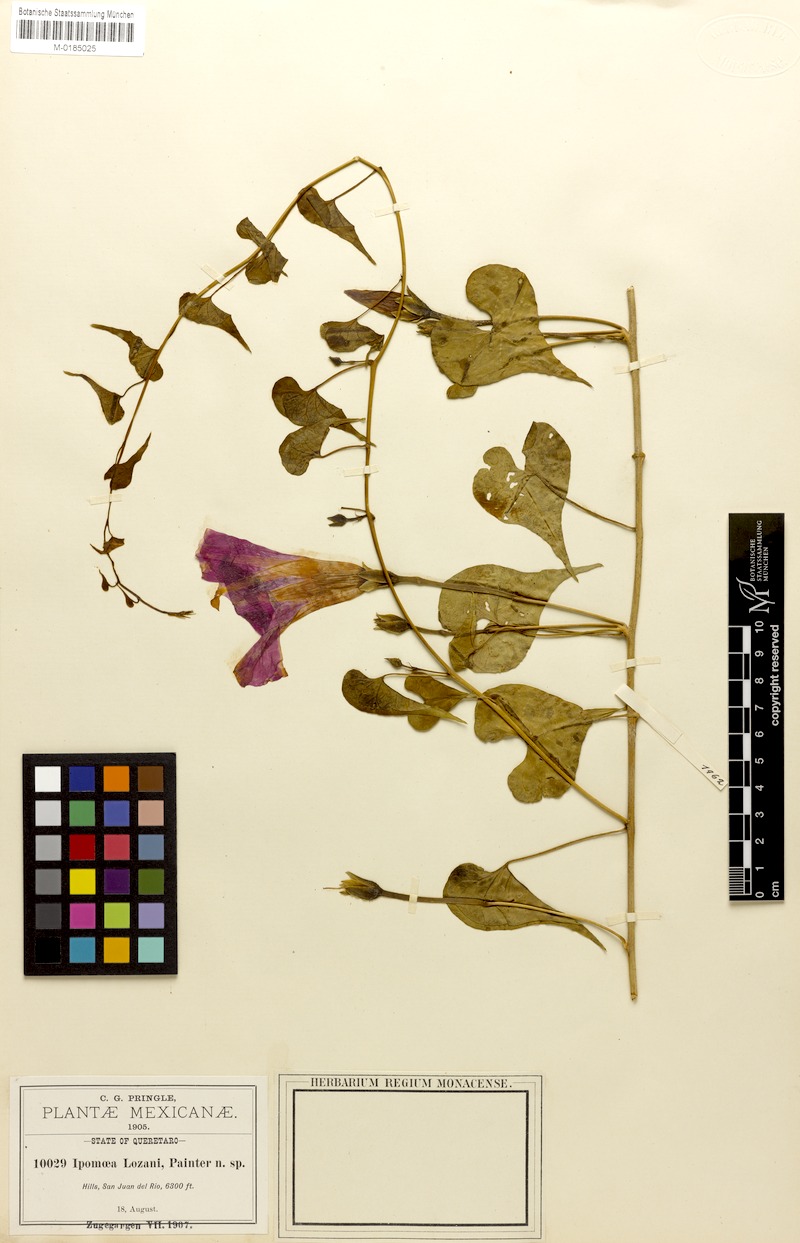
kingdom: Plantae
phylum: Tracheophyta
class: Magnoliopsida
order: Solanales
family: Convolvulaceae
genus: Ipomoea
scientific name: Ipomoea lozanii
